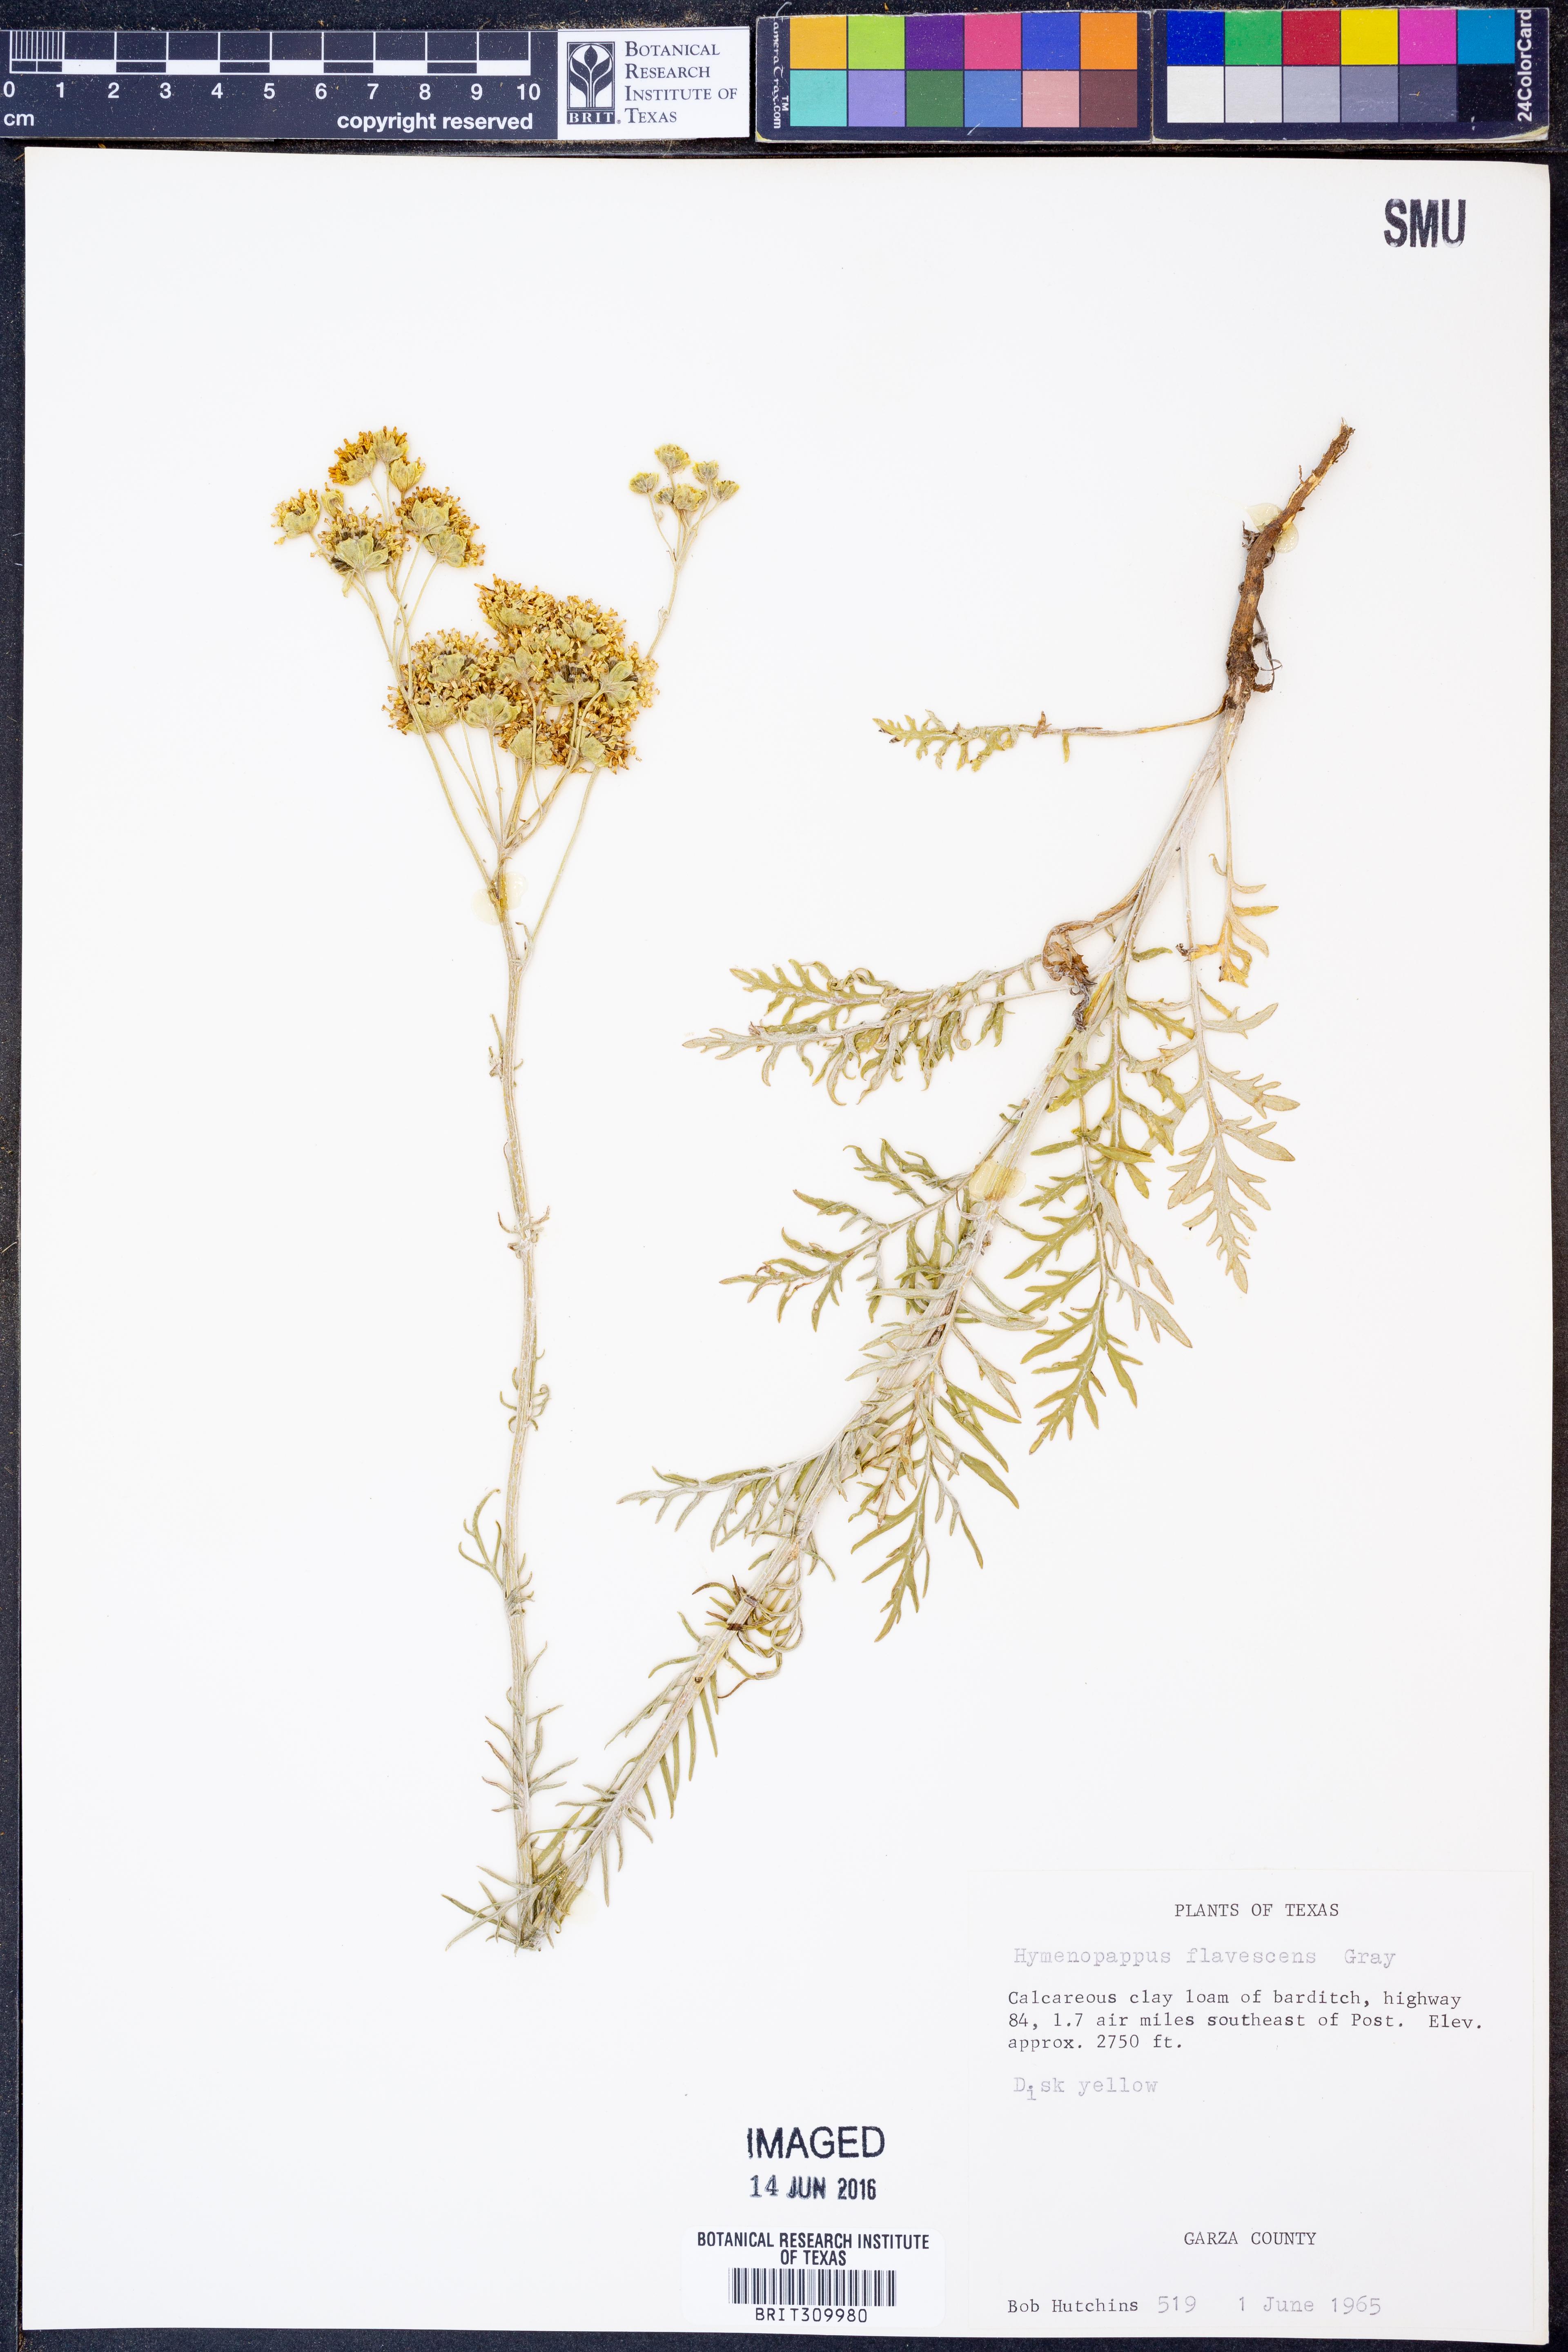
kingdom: Plantae
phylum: Tracheophyta
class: Magnoliopsida
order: Asterales
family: Asteraceae
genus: Hymenopappus
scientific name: Hymenopappus flavescens
